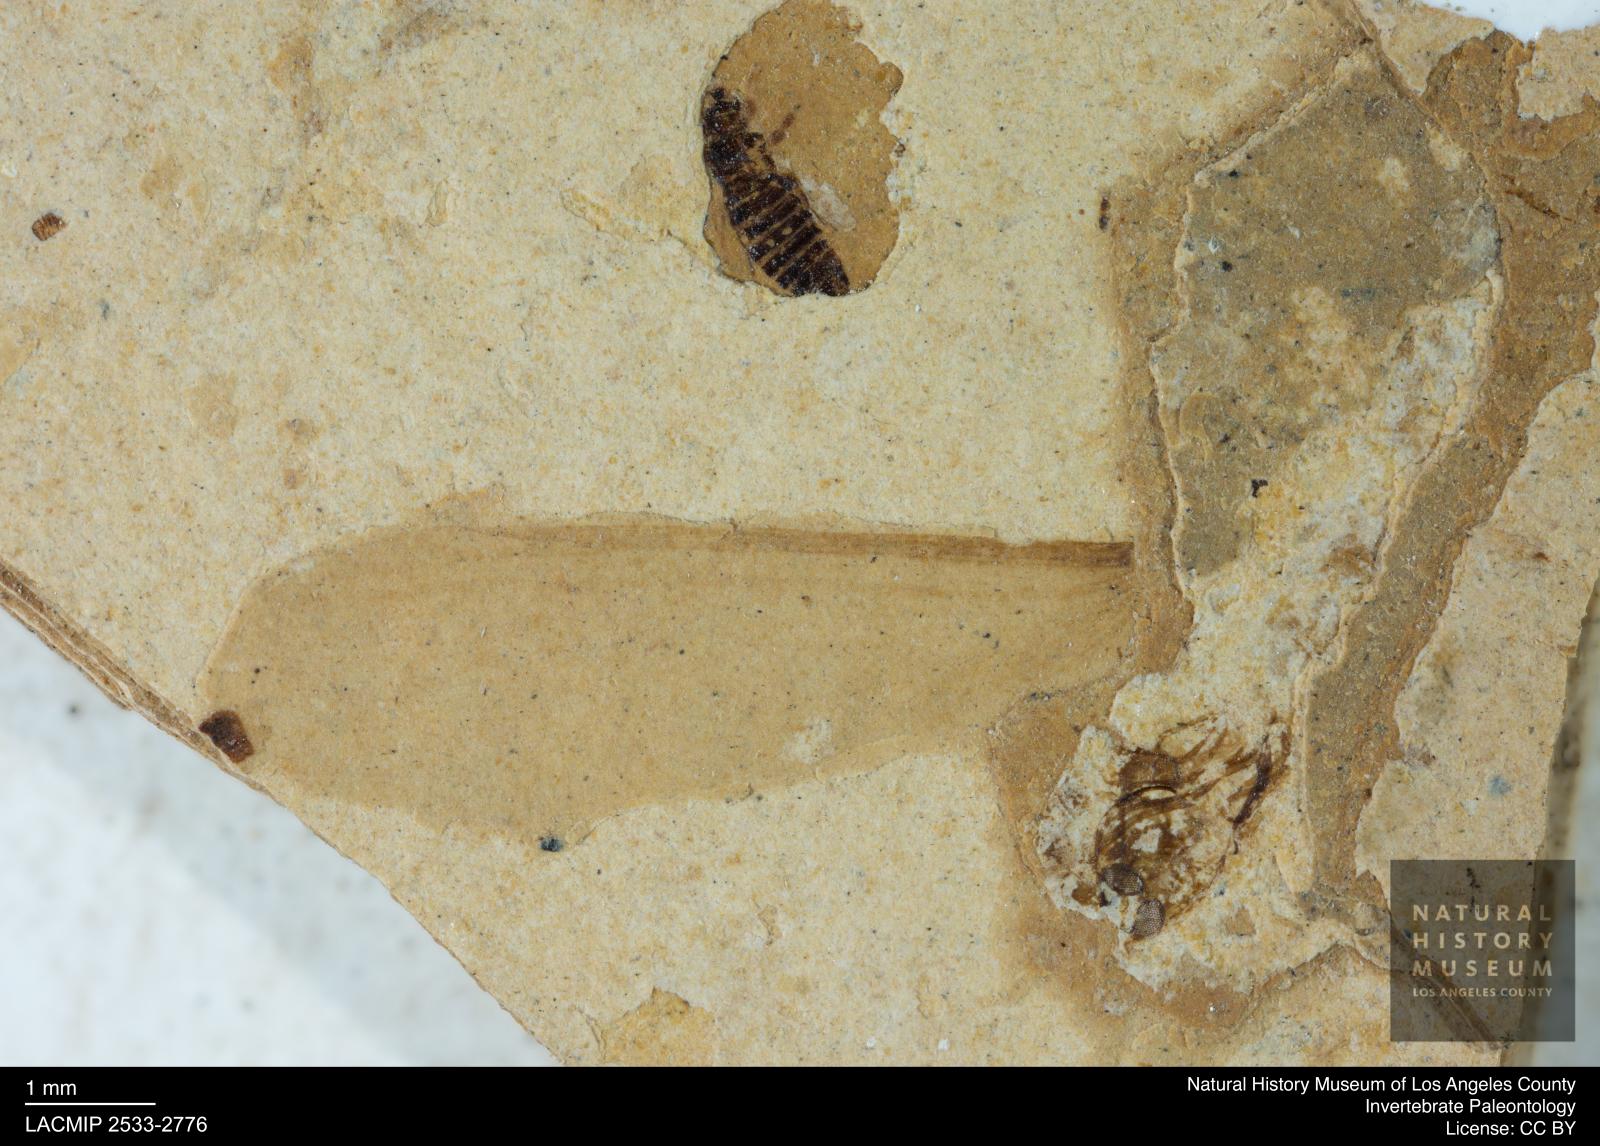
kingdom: Animalia
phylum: Arthropoda
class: Insecta
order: Blattodea
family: Kalotermitidae
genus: Kalotermes
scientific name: Kalotermes rhenanus
